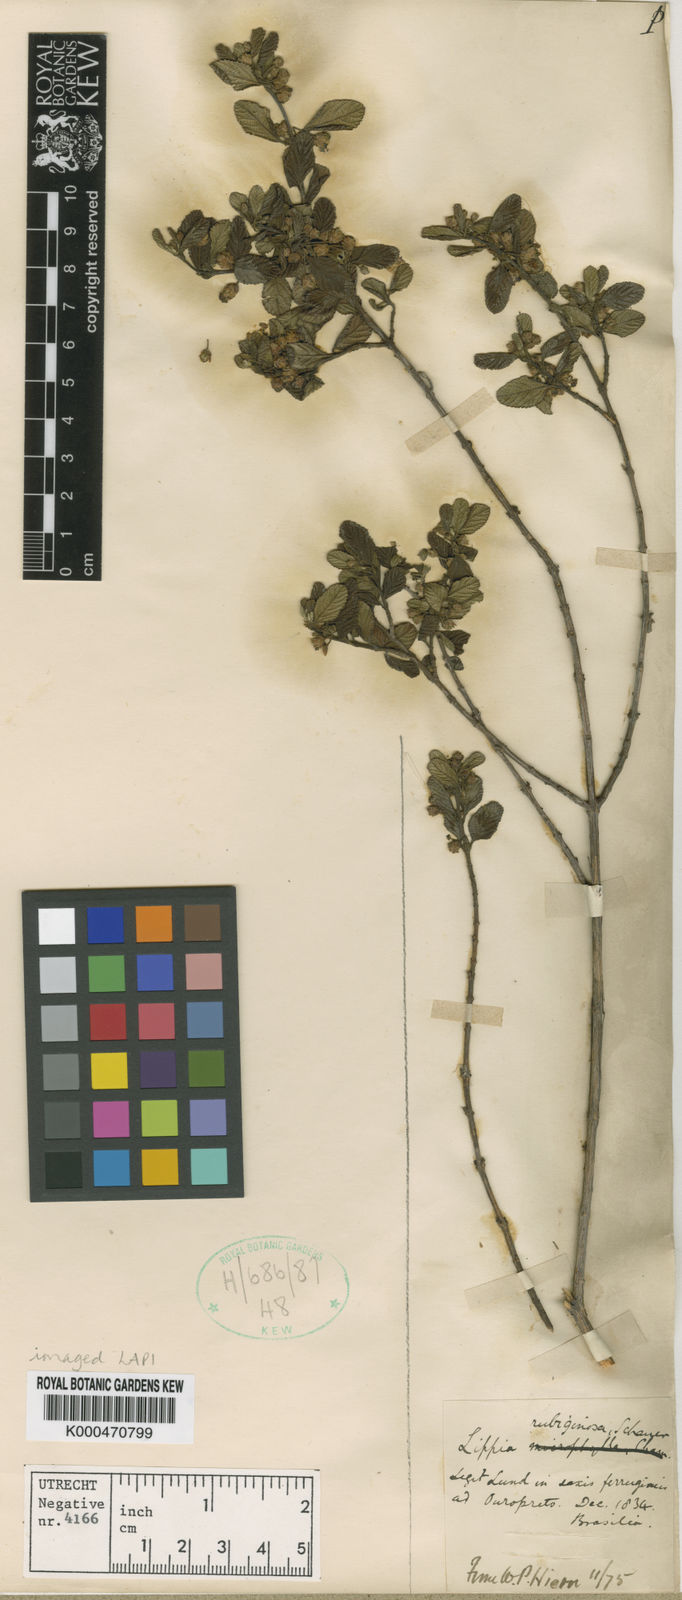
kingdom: Plantae
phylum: Tracheophyta
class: Magnoliopsida
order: Lamiales
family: Verbenaceae
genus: Lippia
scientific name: Lippia origanoides
